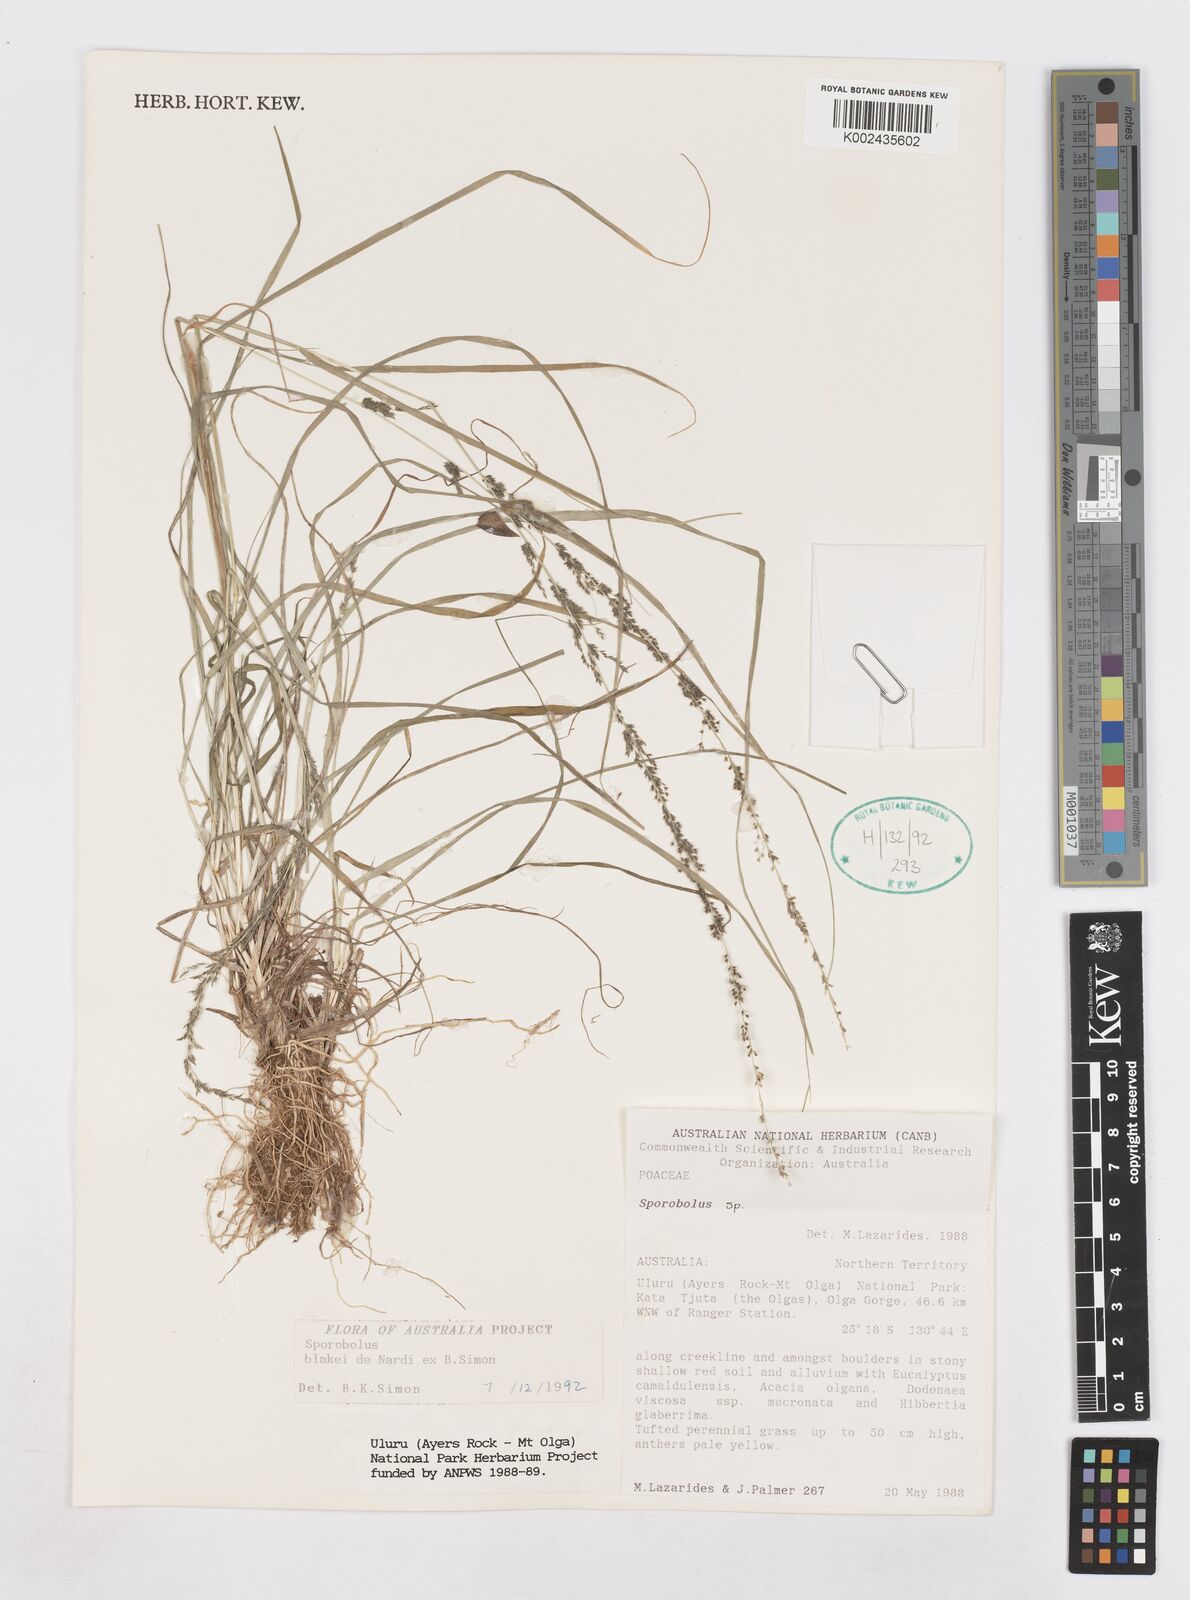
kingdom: Plantae
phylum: Tracheophyta
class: Liliopsida
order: Poales
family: Poaceae
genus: Sporobolus
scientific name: Sporobolus blakei
